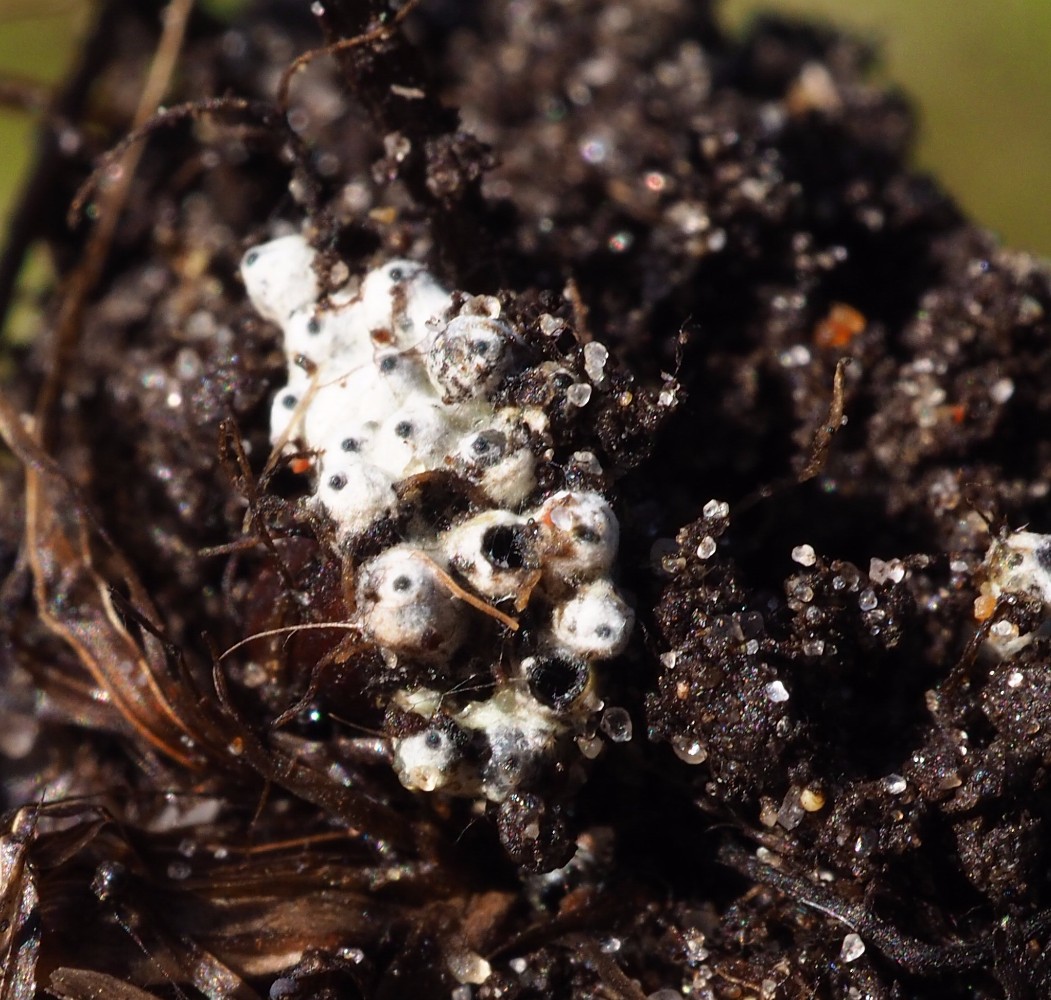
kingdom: Fungi
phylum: Ascomycota
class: Sordariomycetes
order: Sordariales
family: Lasiosphaeriaceae
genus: Lasiosphaeria
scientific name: Lasiosphaeria ovina
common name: fåre-kernesvamp
